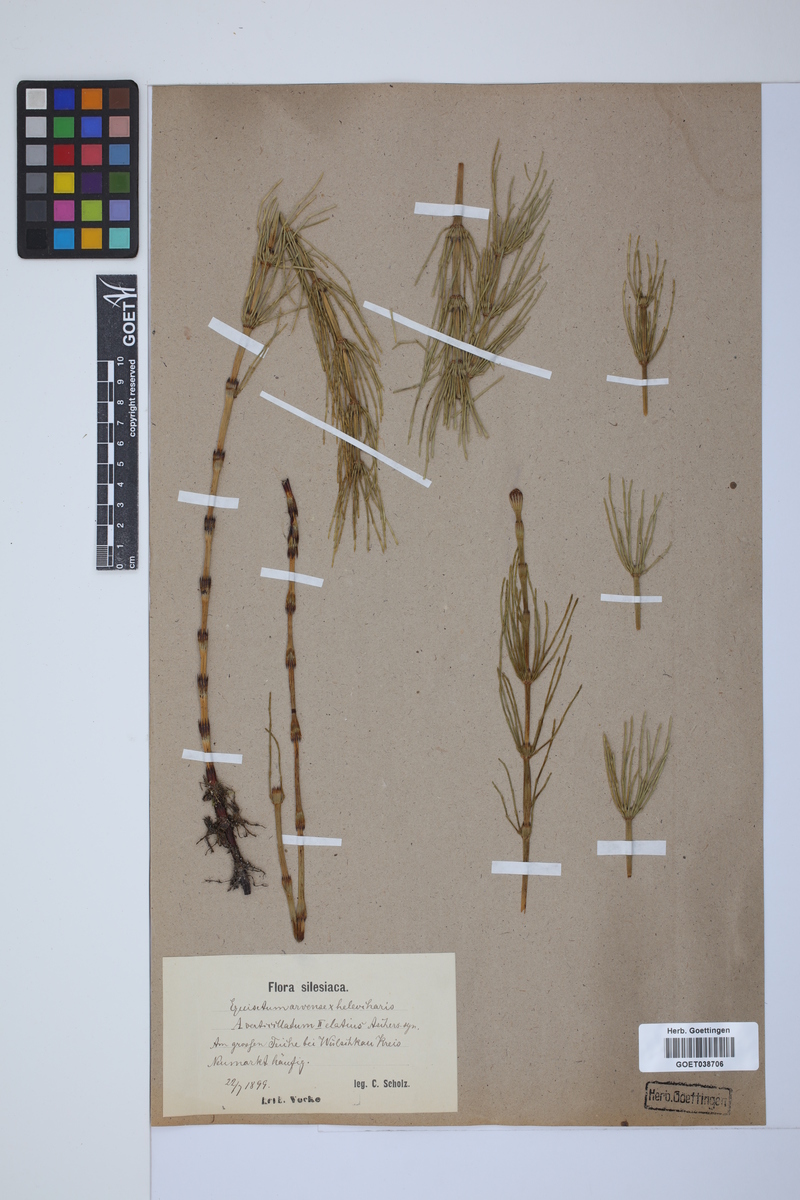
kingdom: Plantae
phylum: Tracheophyta
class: Polypodiopsida
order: Equisetales
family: Equisetaceae
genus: Equisetum
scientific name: Equisetum litorale
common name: Littoral horsetail
